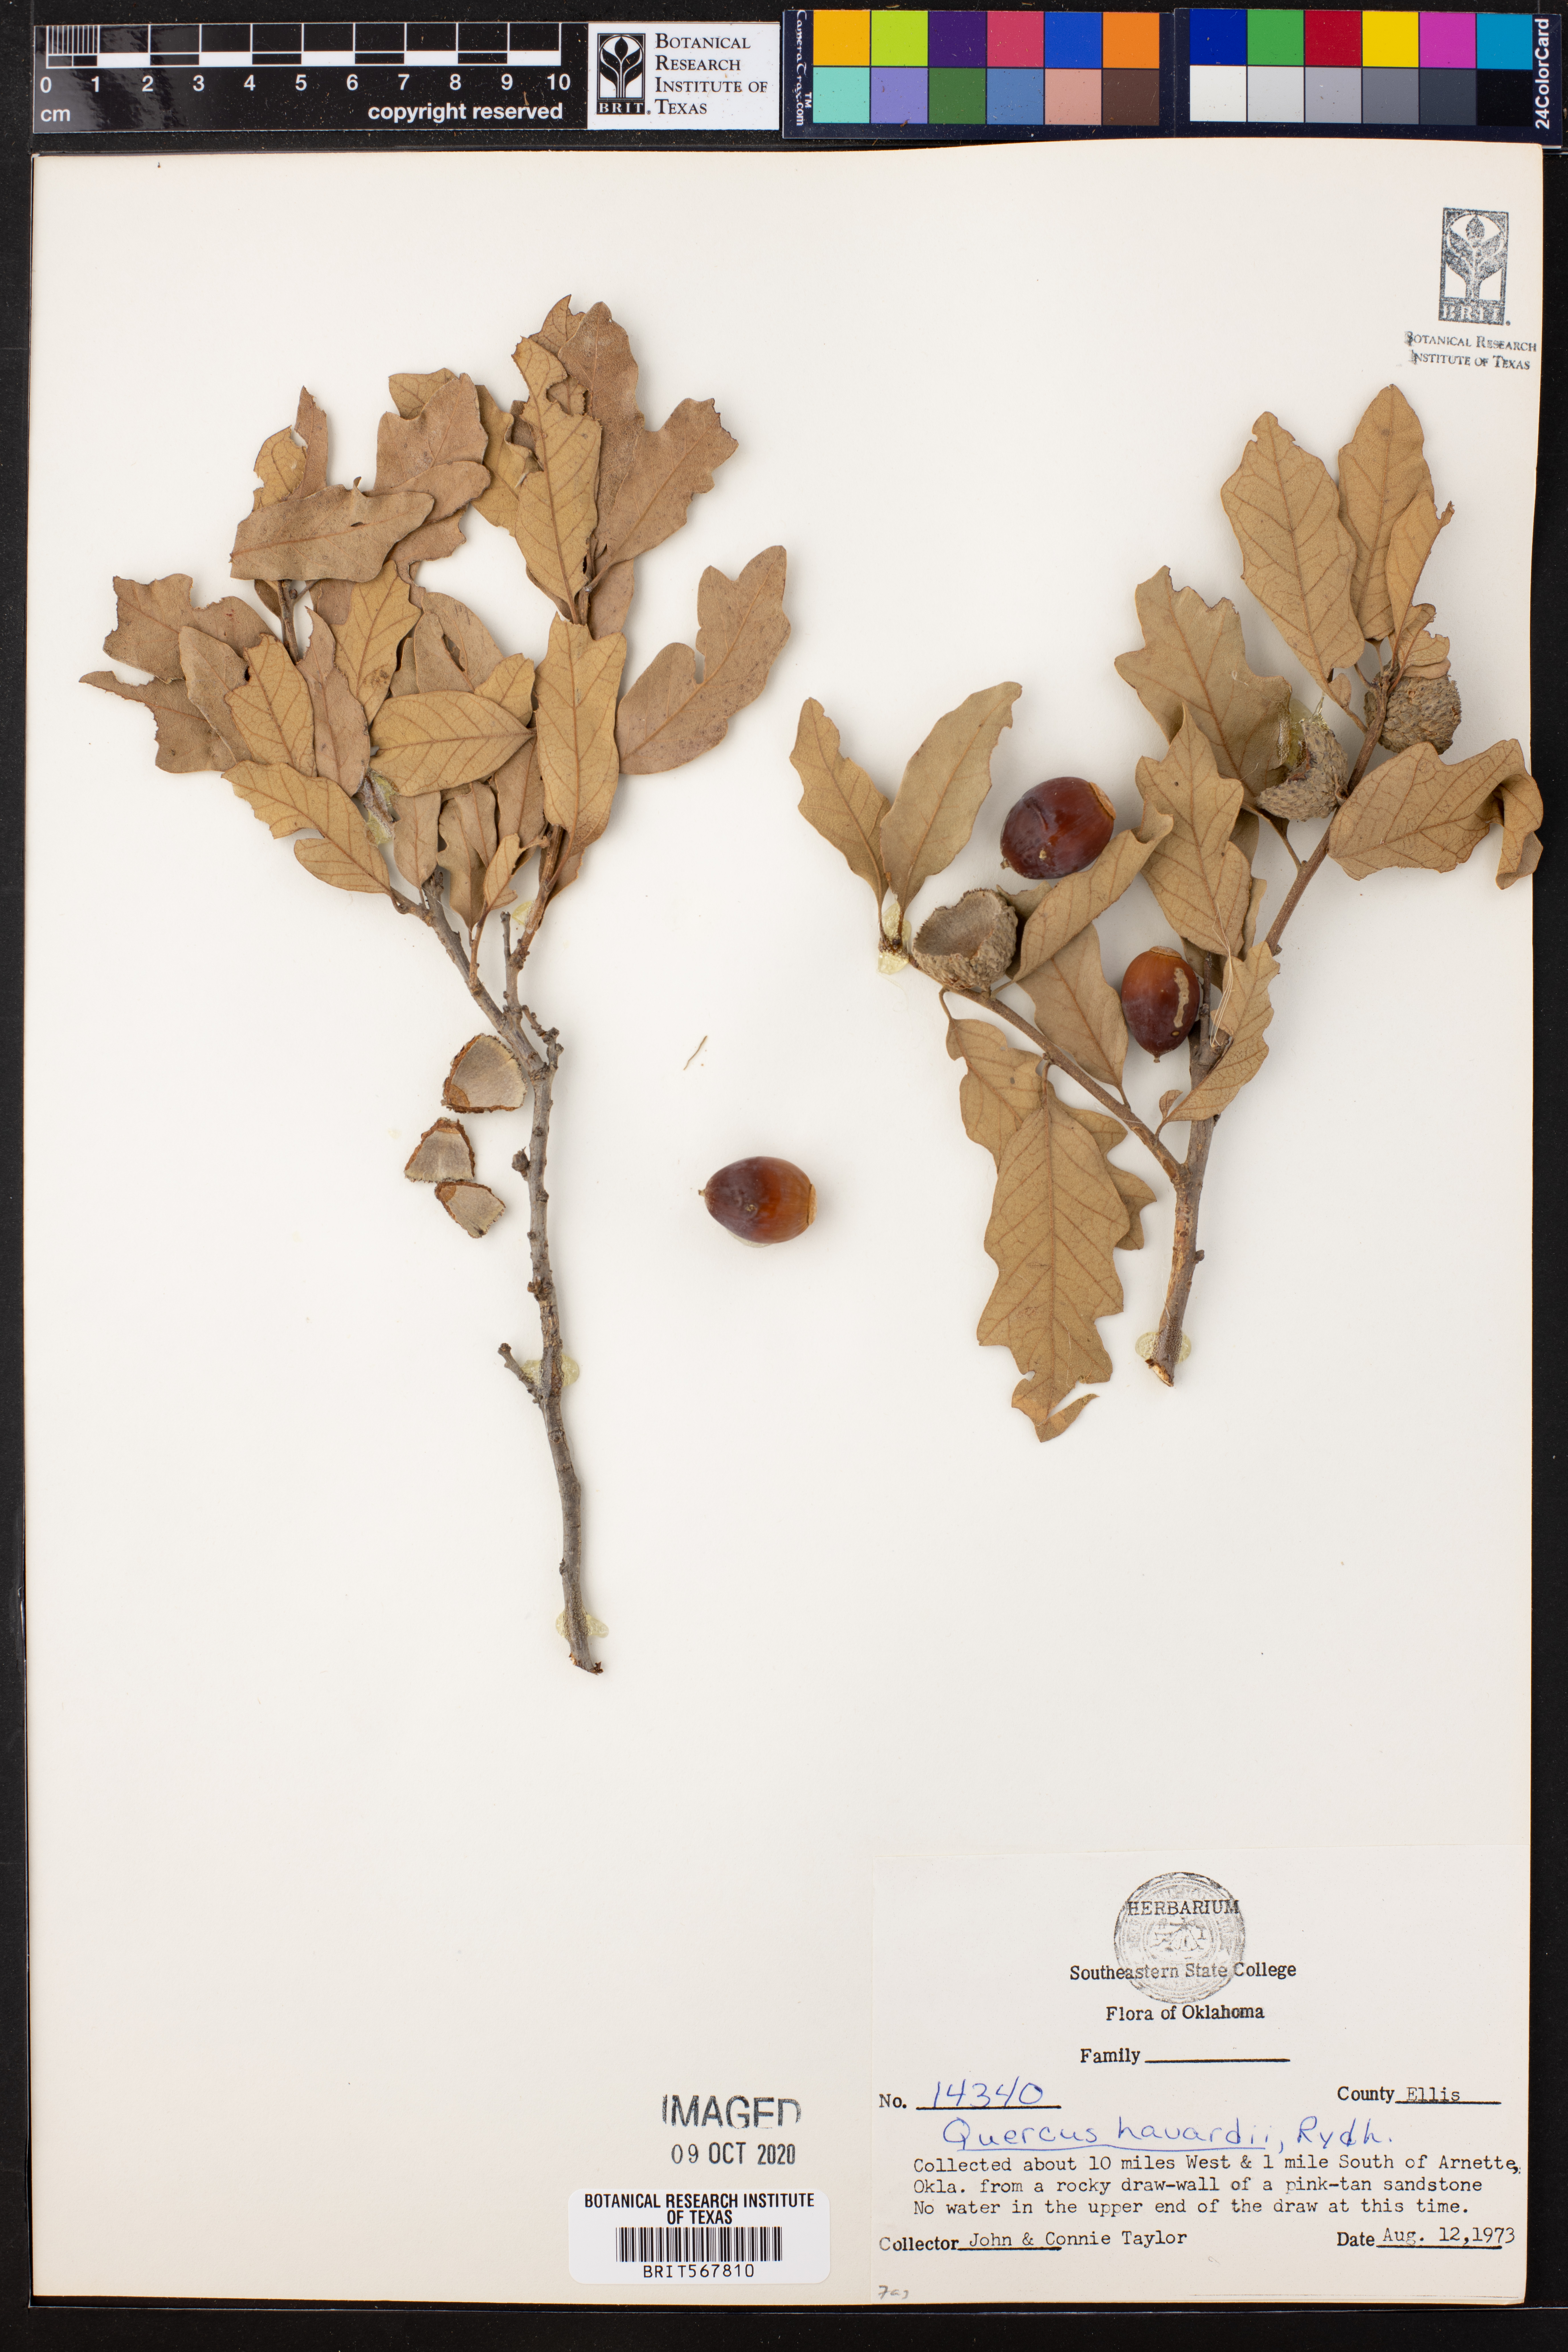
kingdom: Plantae
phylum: Tracheophyta
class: Magnoliopsida
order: Fagales
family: Fagaceae
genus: Quercus
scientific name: Quercus havardii
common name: Shinnery oak
